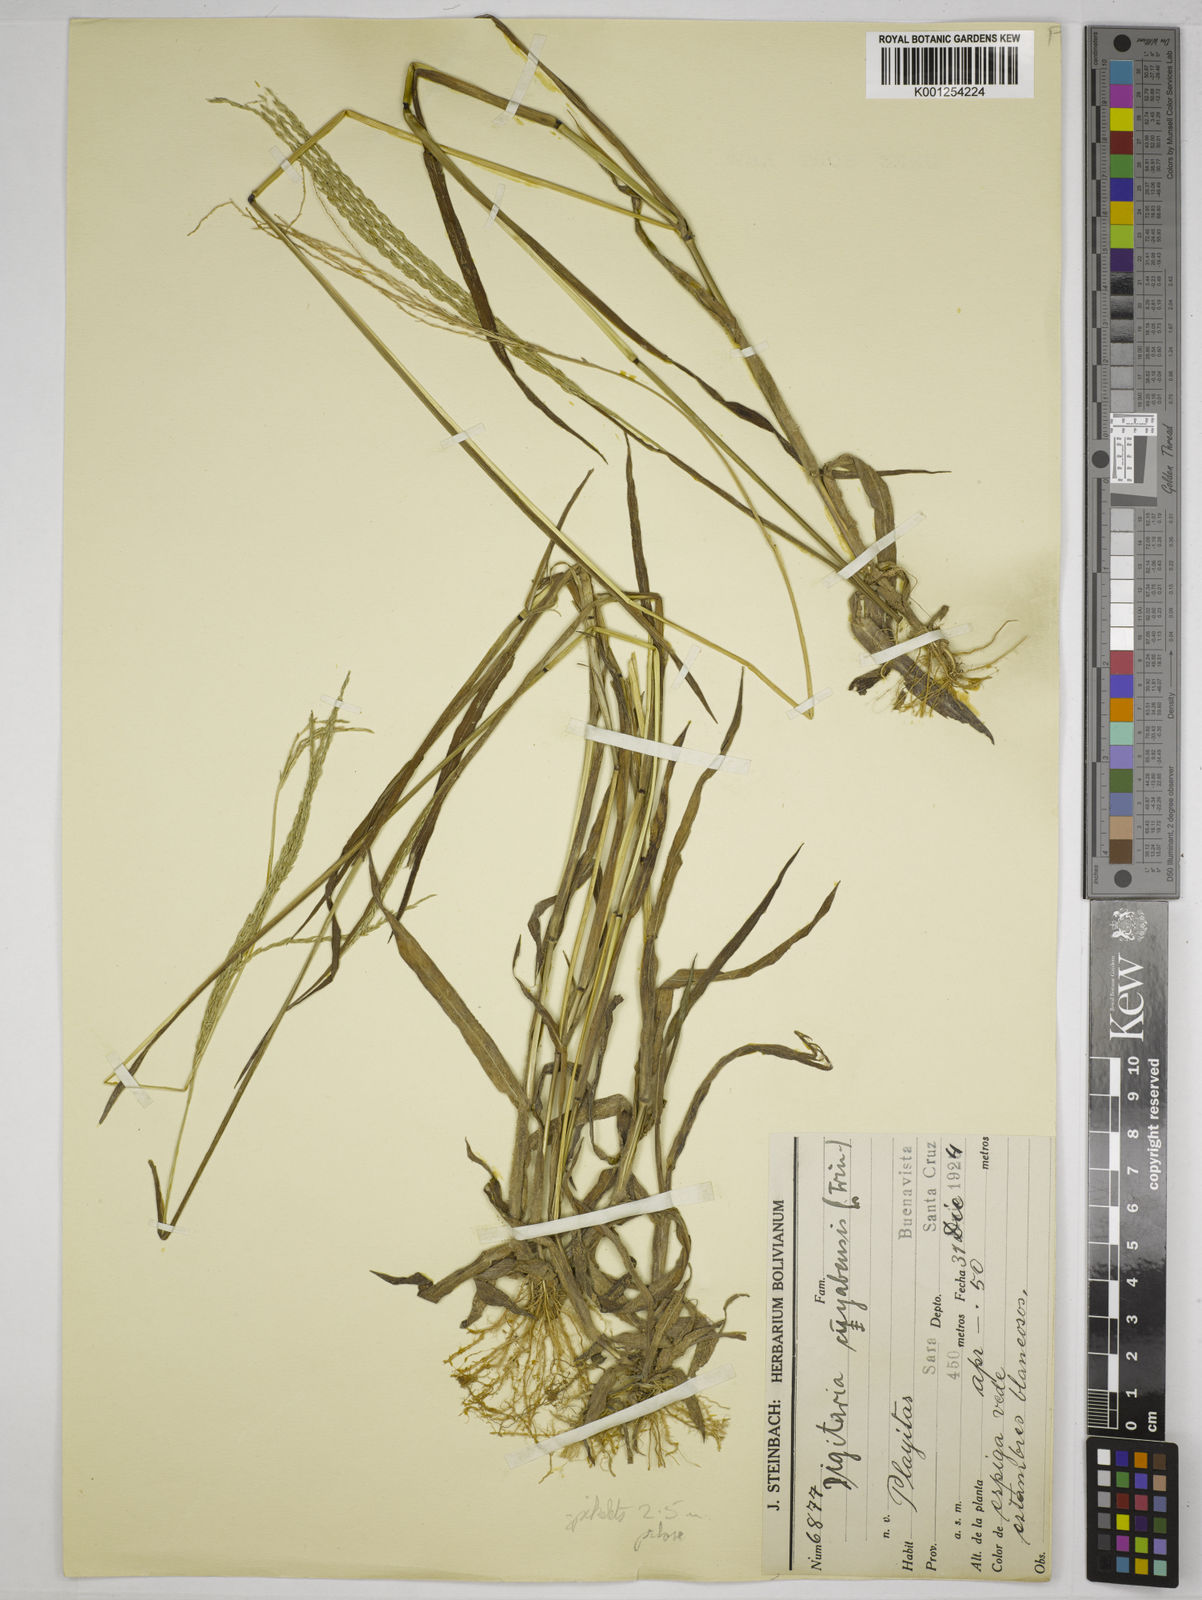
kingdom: Plantae
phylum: Tracheophyta
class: Liliopsida
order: Poales
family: Poaceae
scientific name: Poaceae
